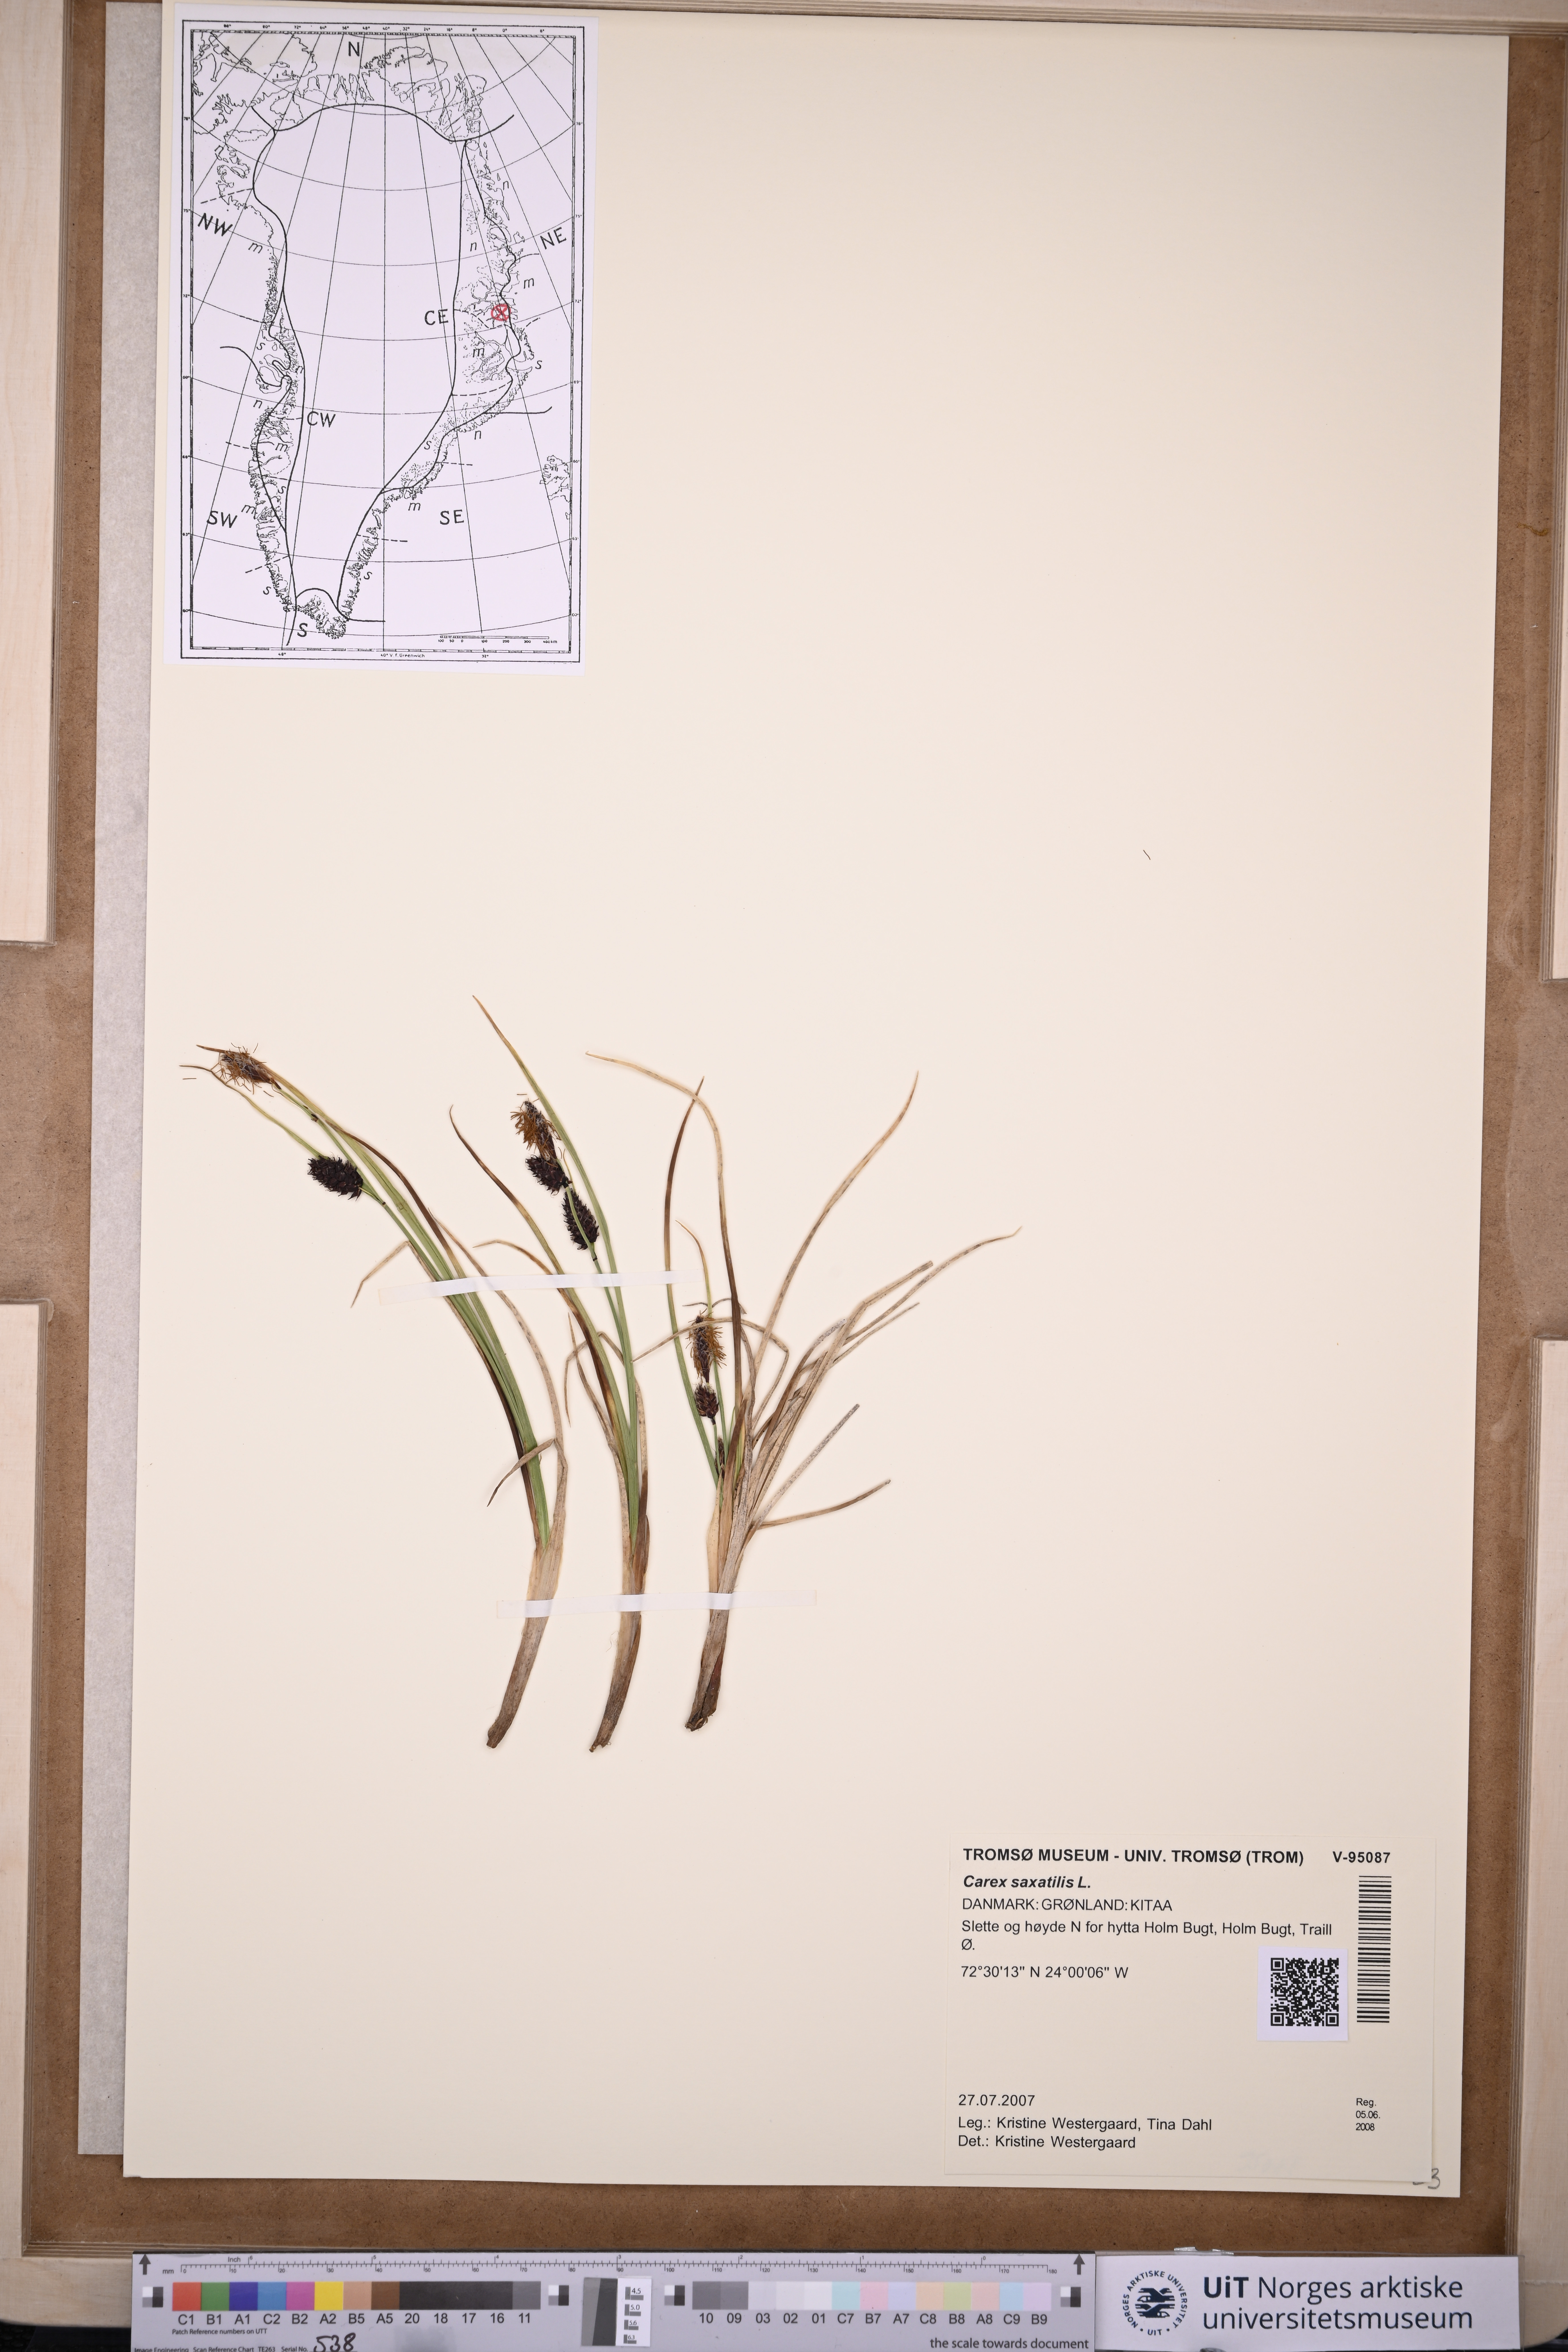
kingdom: Plantae
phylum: Tracheophyta
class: Liliopsida
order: Poales
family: Cyperaceae
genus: Carex
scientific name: Carex saxatilis
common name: Russet sedge
